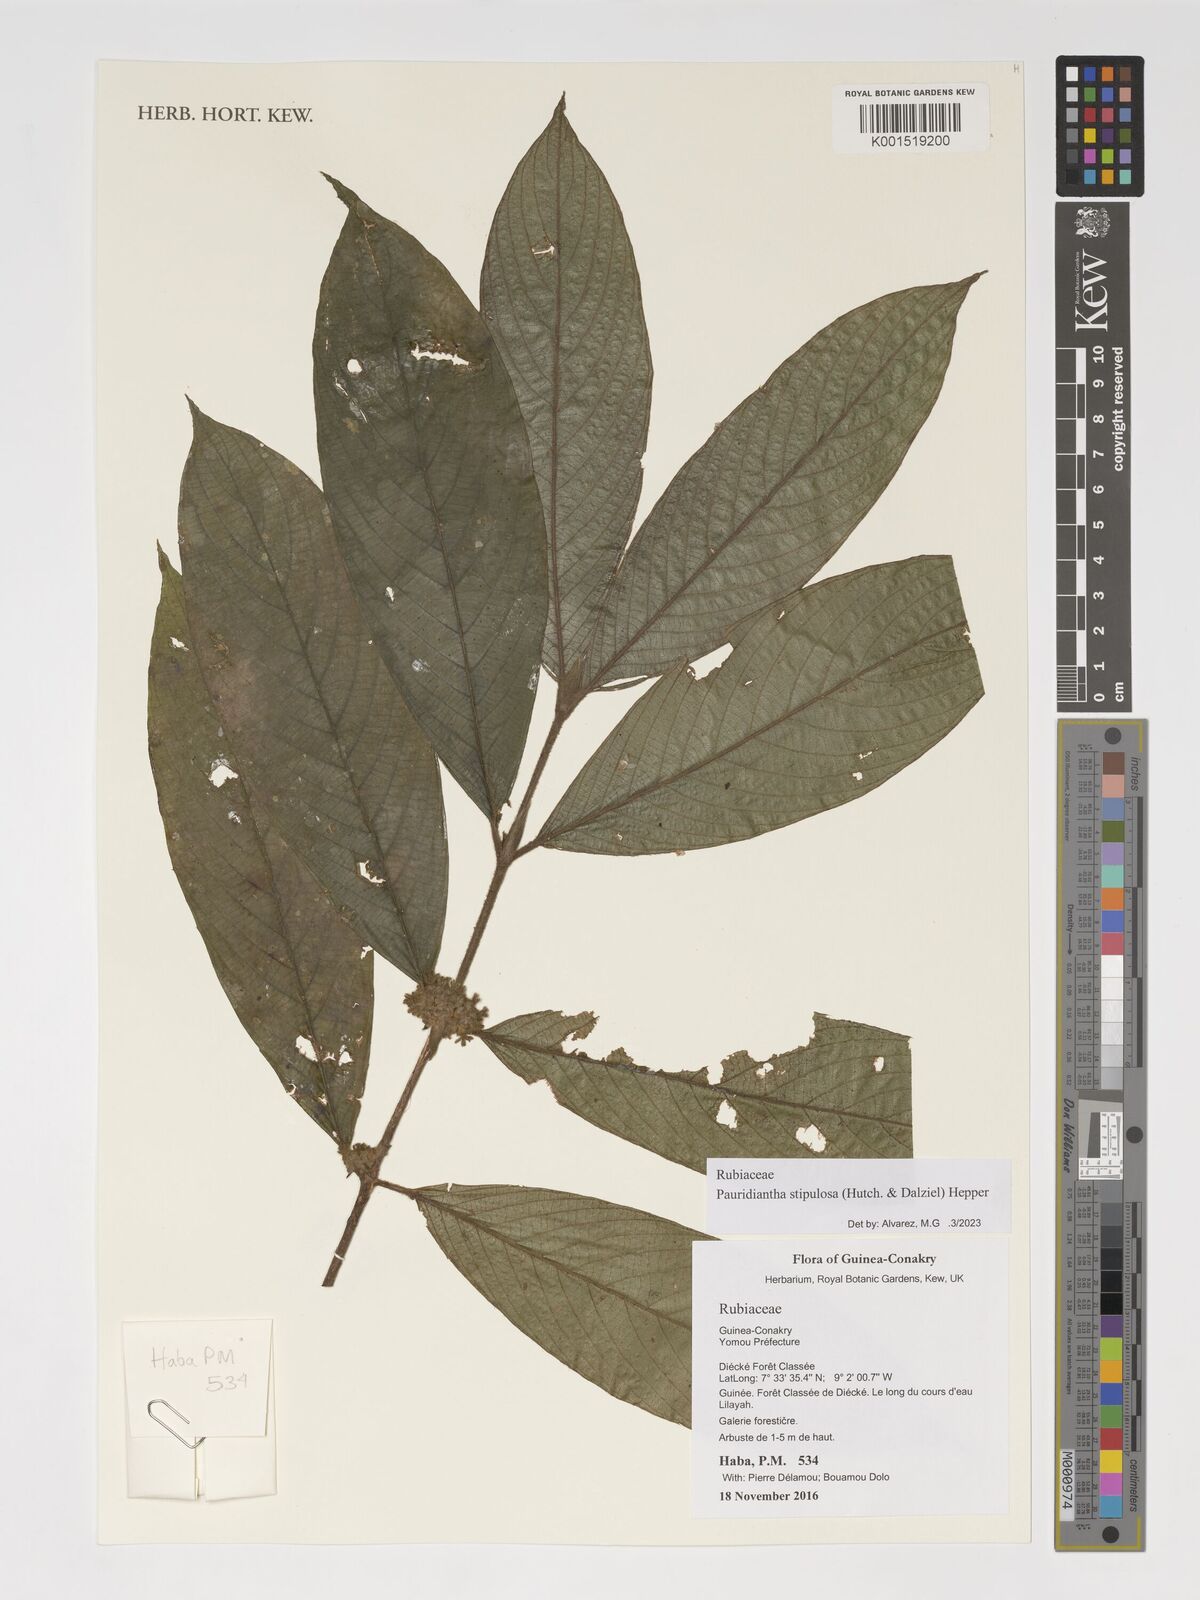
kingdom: Plantae
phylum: Tracheophyta
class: Magnoliopsida
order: Gentianales
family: Rubiaceae
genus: Pauridiantha
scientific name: Pauridiantha stipulosa
